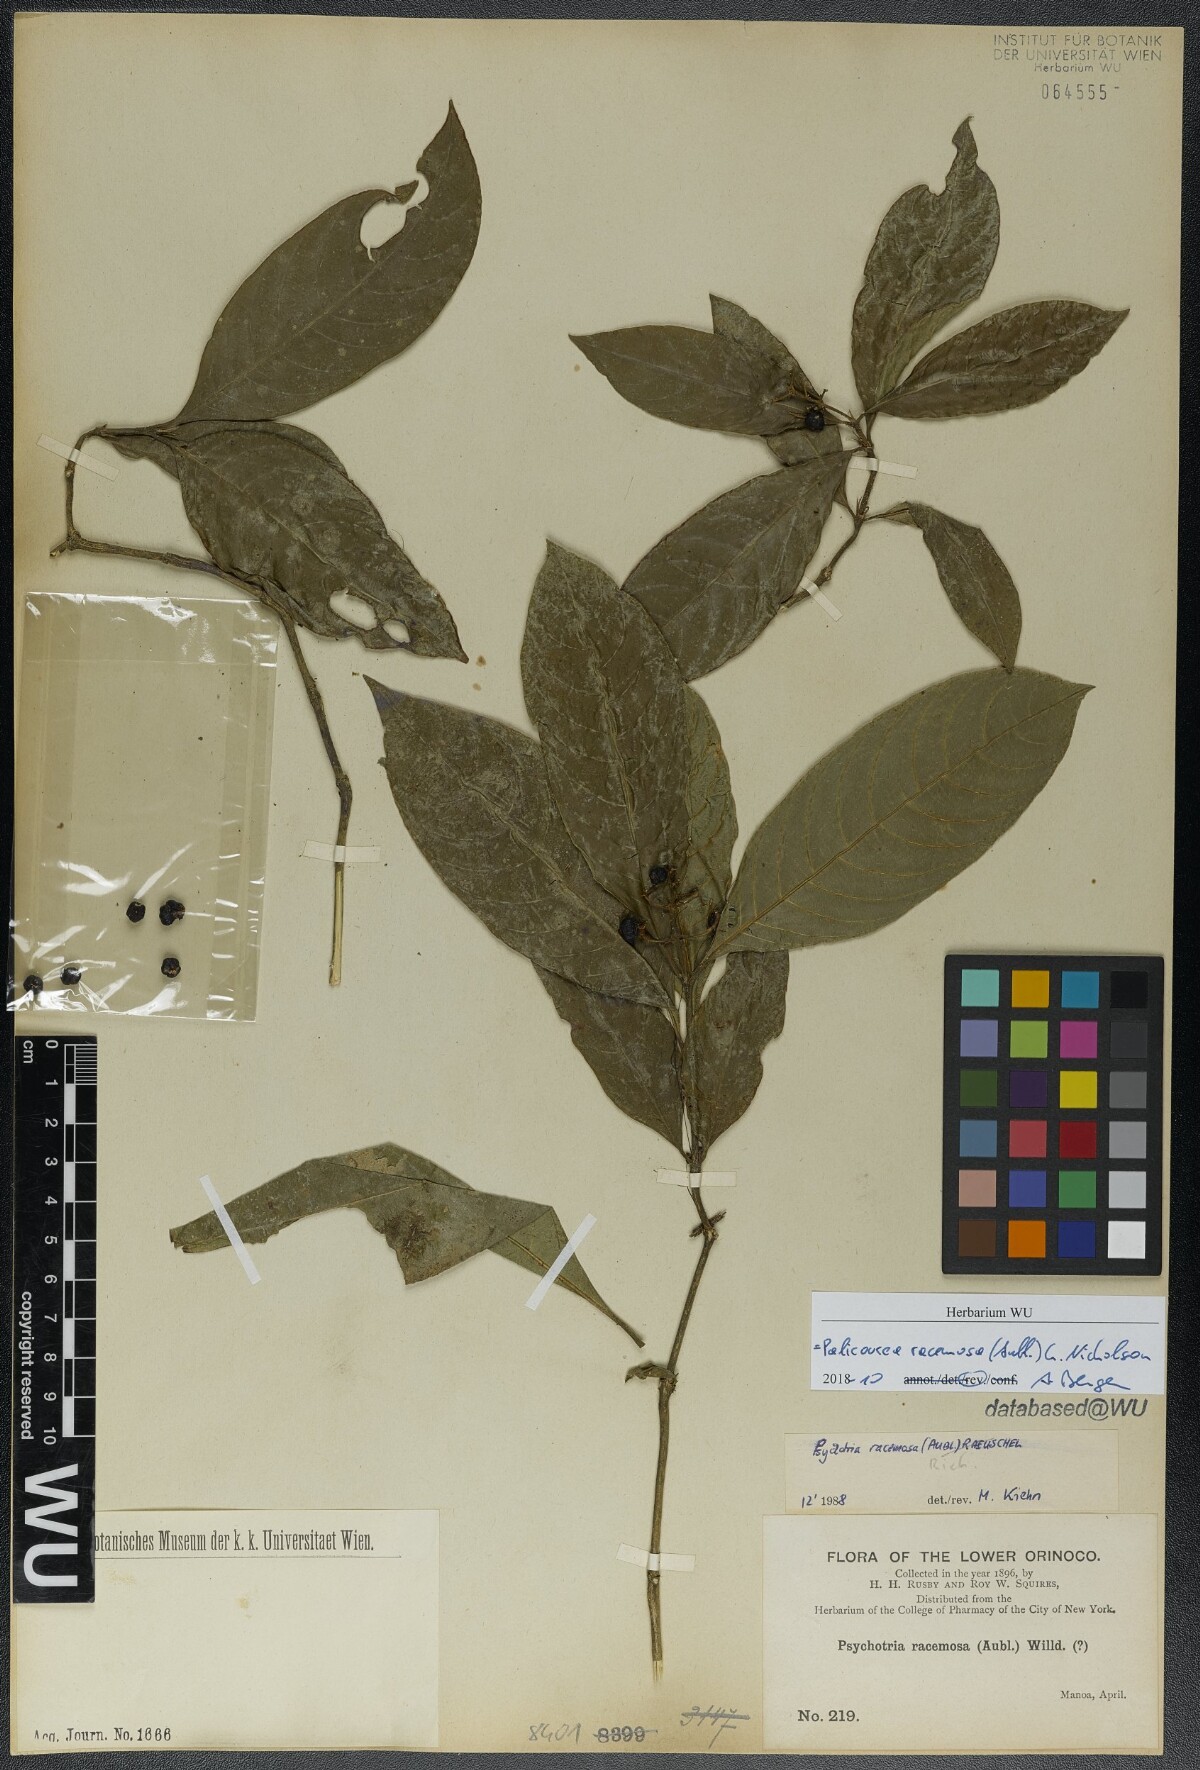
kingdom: Plantae
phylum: Tracheophyta
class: Magnoliopsida
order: Gentianales
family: Rubiaceae
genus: Palicourea
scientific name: Palicourea racemosa
